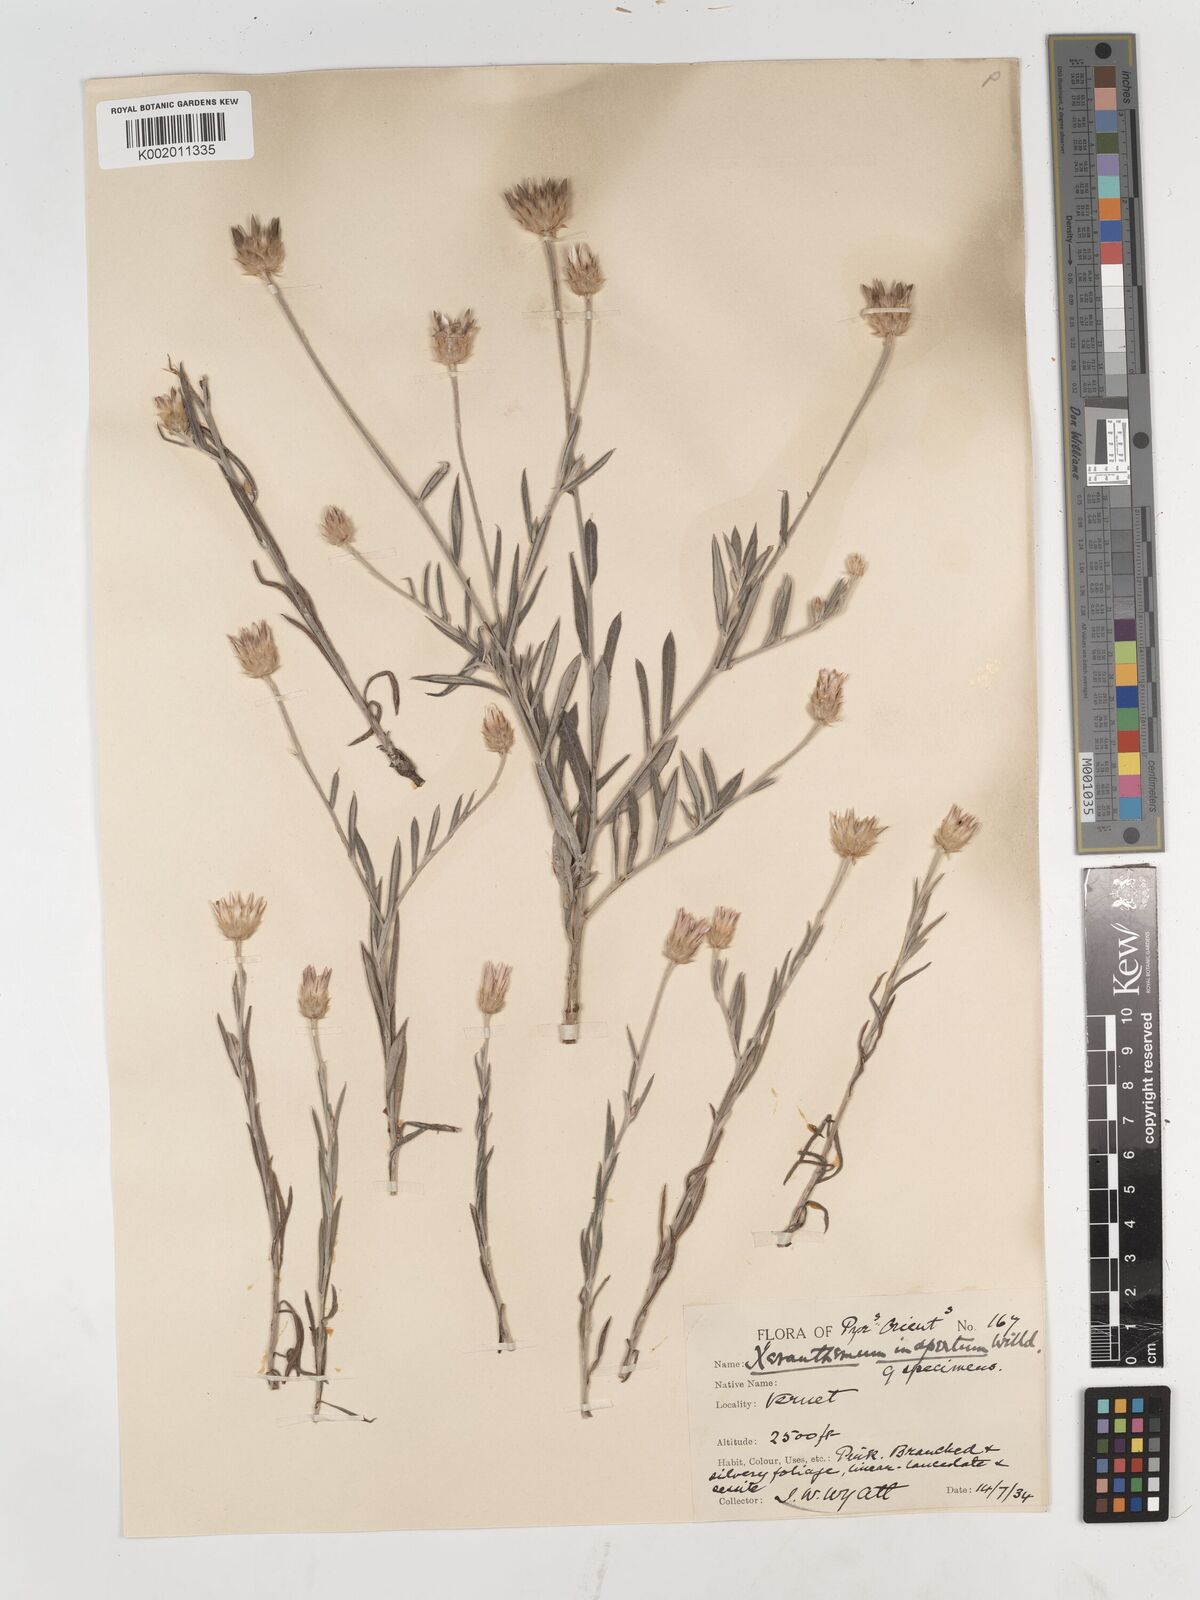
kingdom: Plantae
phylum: Tracheophyta
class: Magnoliopsida
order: Asterales
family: Asteraceae
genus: Xeranthemum
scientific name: Xeranthemum inapertum
